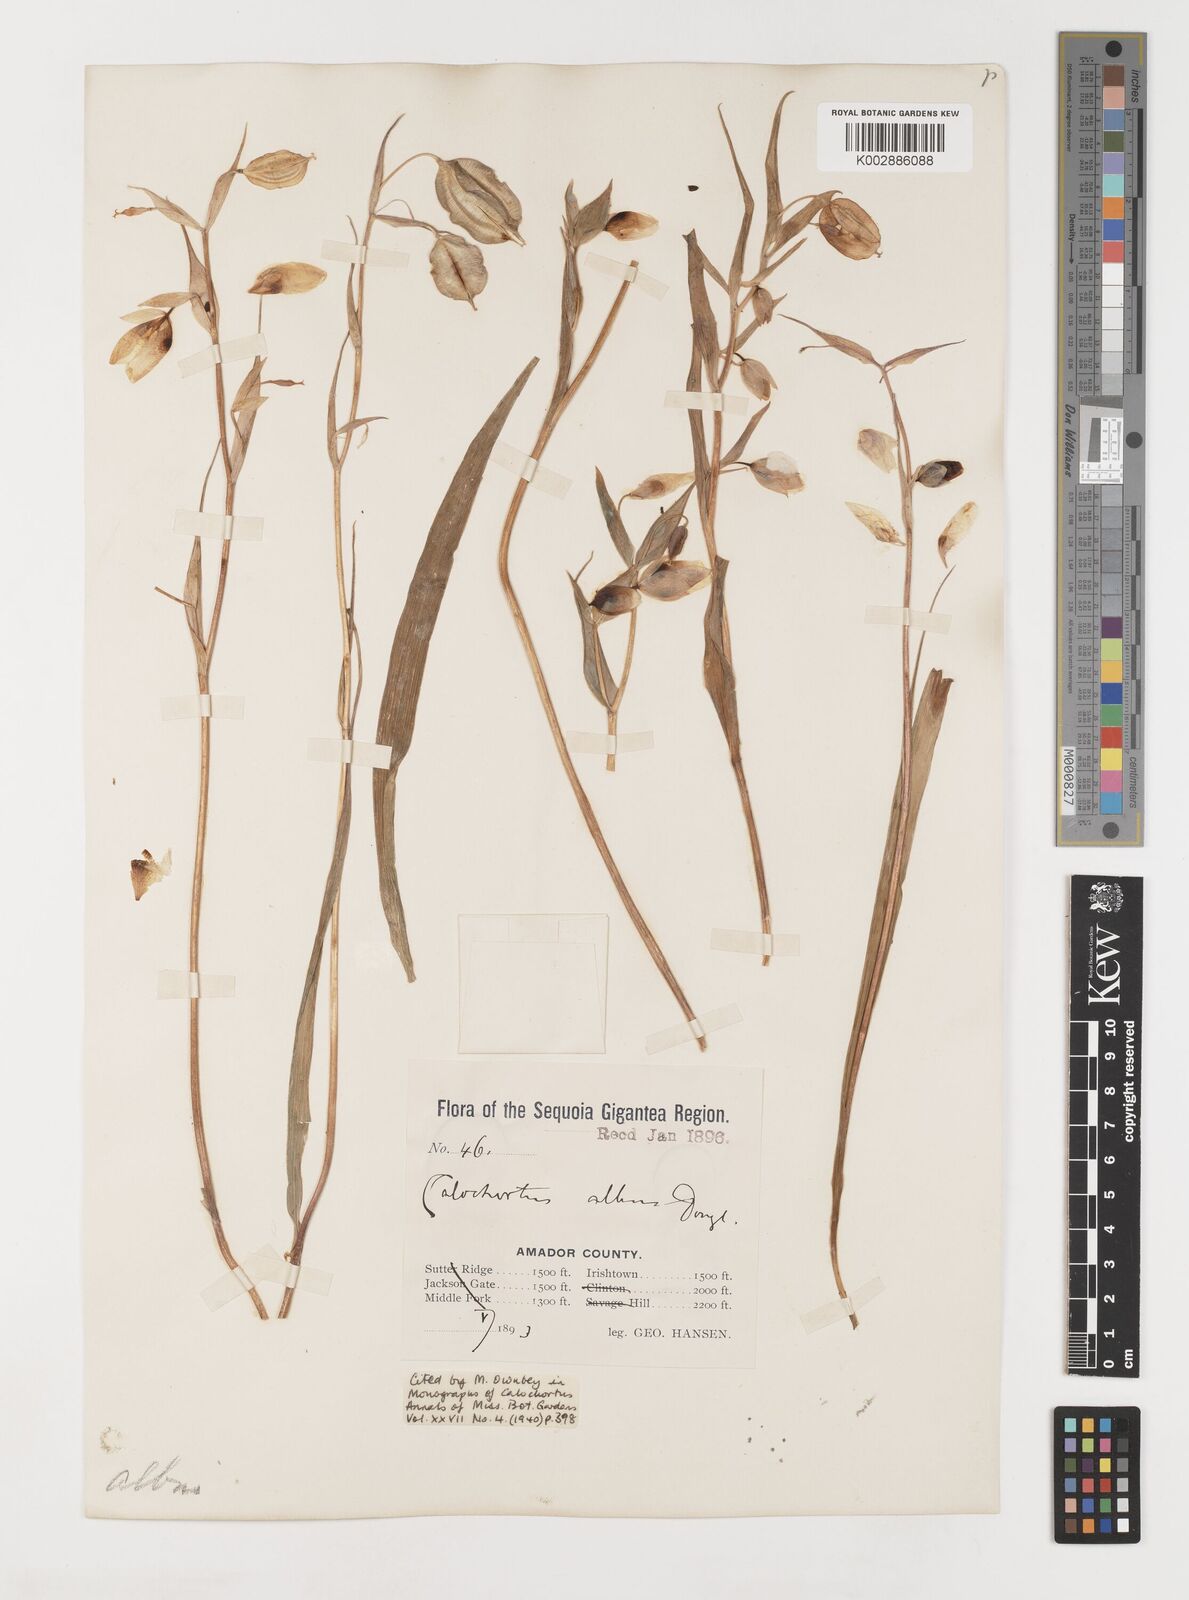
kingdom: Plantae
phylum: Tracheophyta
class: Liliopsida
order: Liliales
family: Liliaceae
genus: Calochortus
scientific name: Calochortus albus
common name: Fairy-lantern
